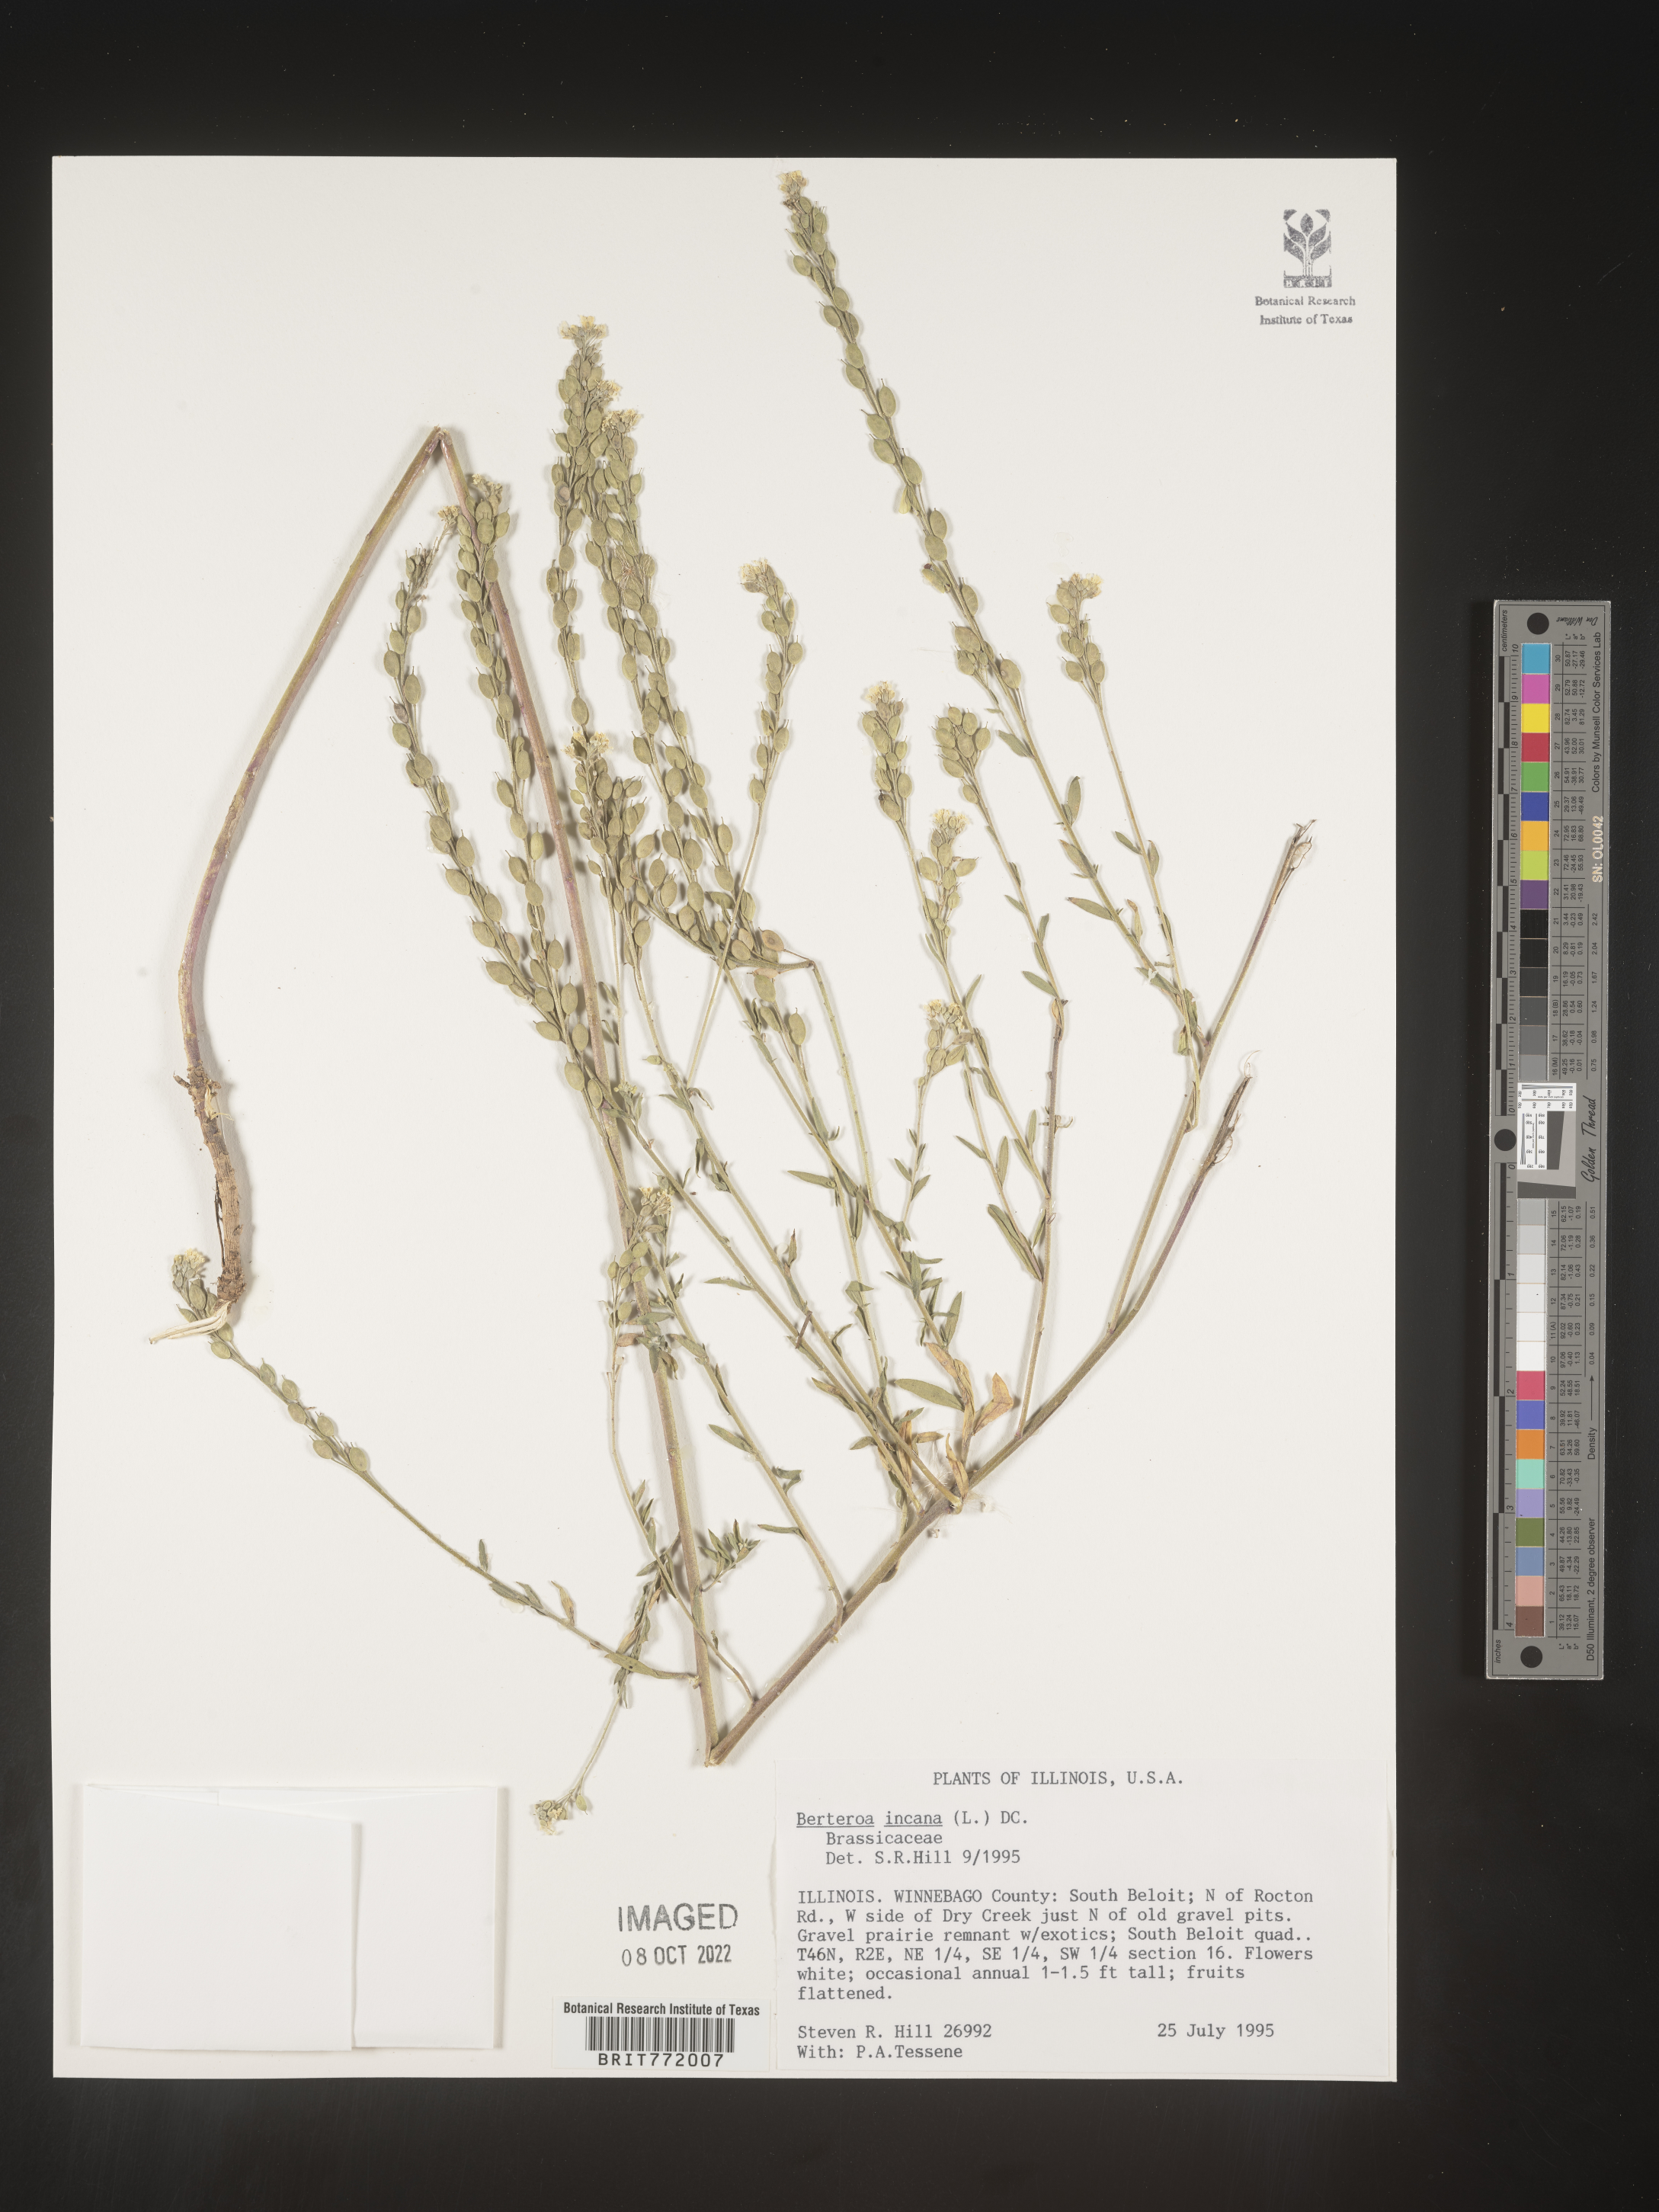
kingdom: Plantae
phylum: Tracheophyta
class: Magnoliopsida
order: Brassicales
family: Brassicaceae
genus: Berteroa
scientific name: Berteroa incana
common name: Hoary alison
